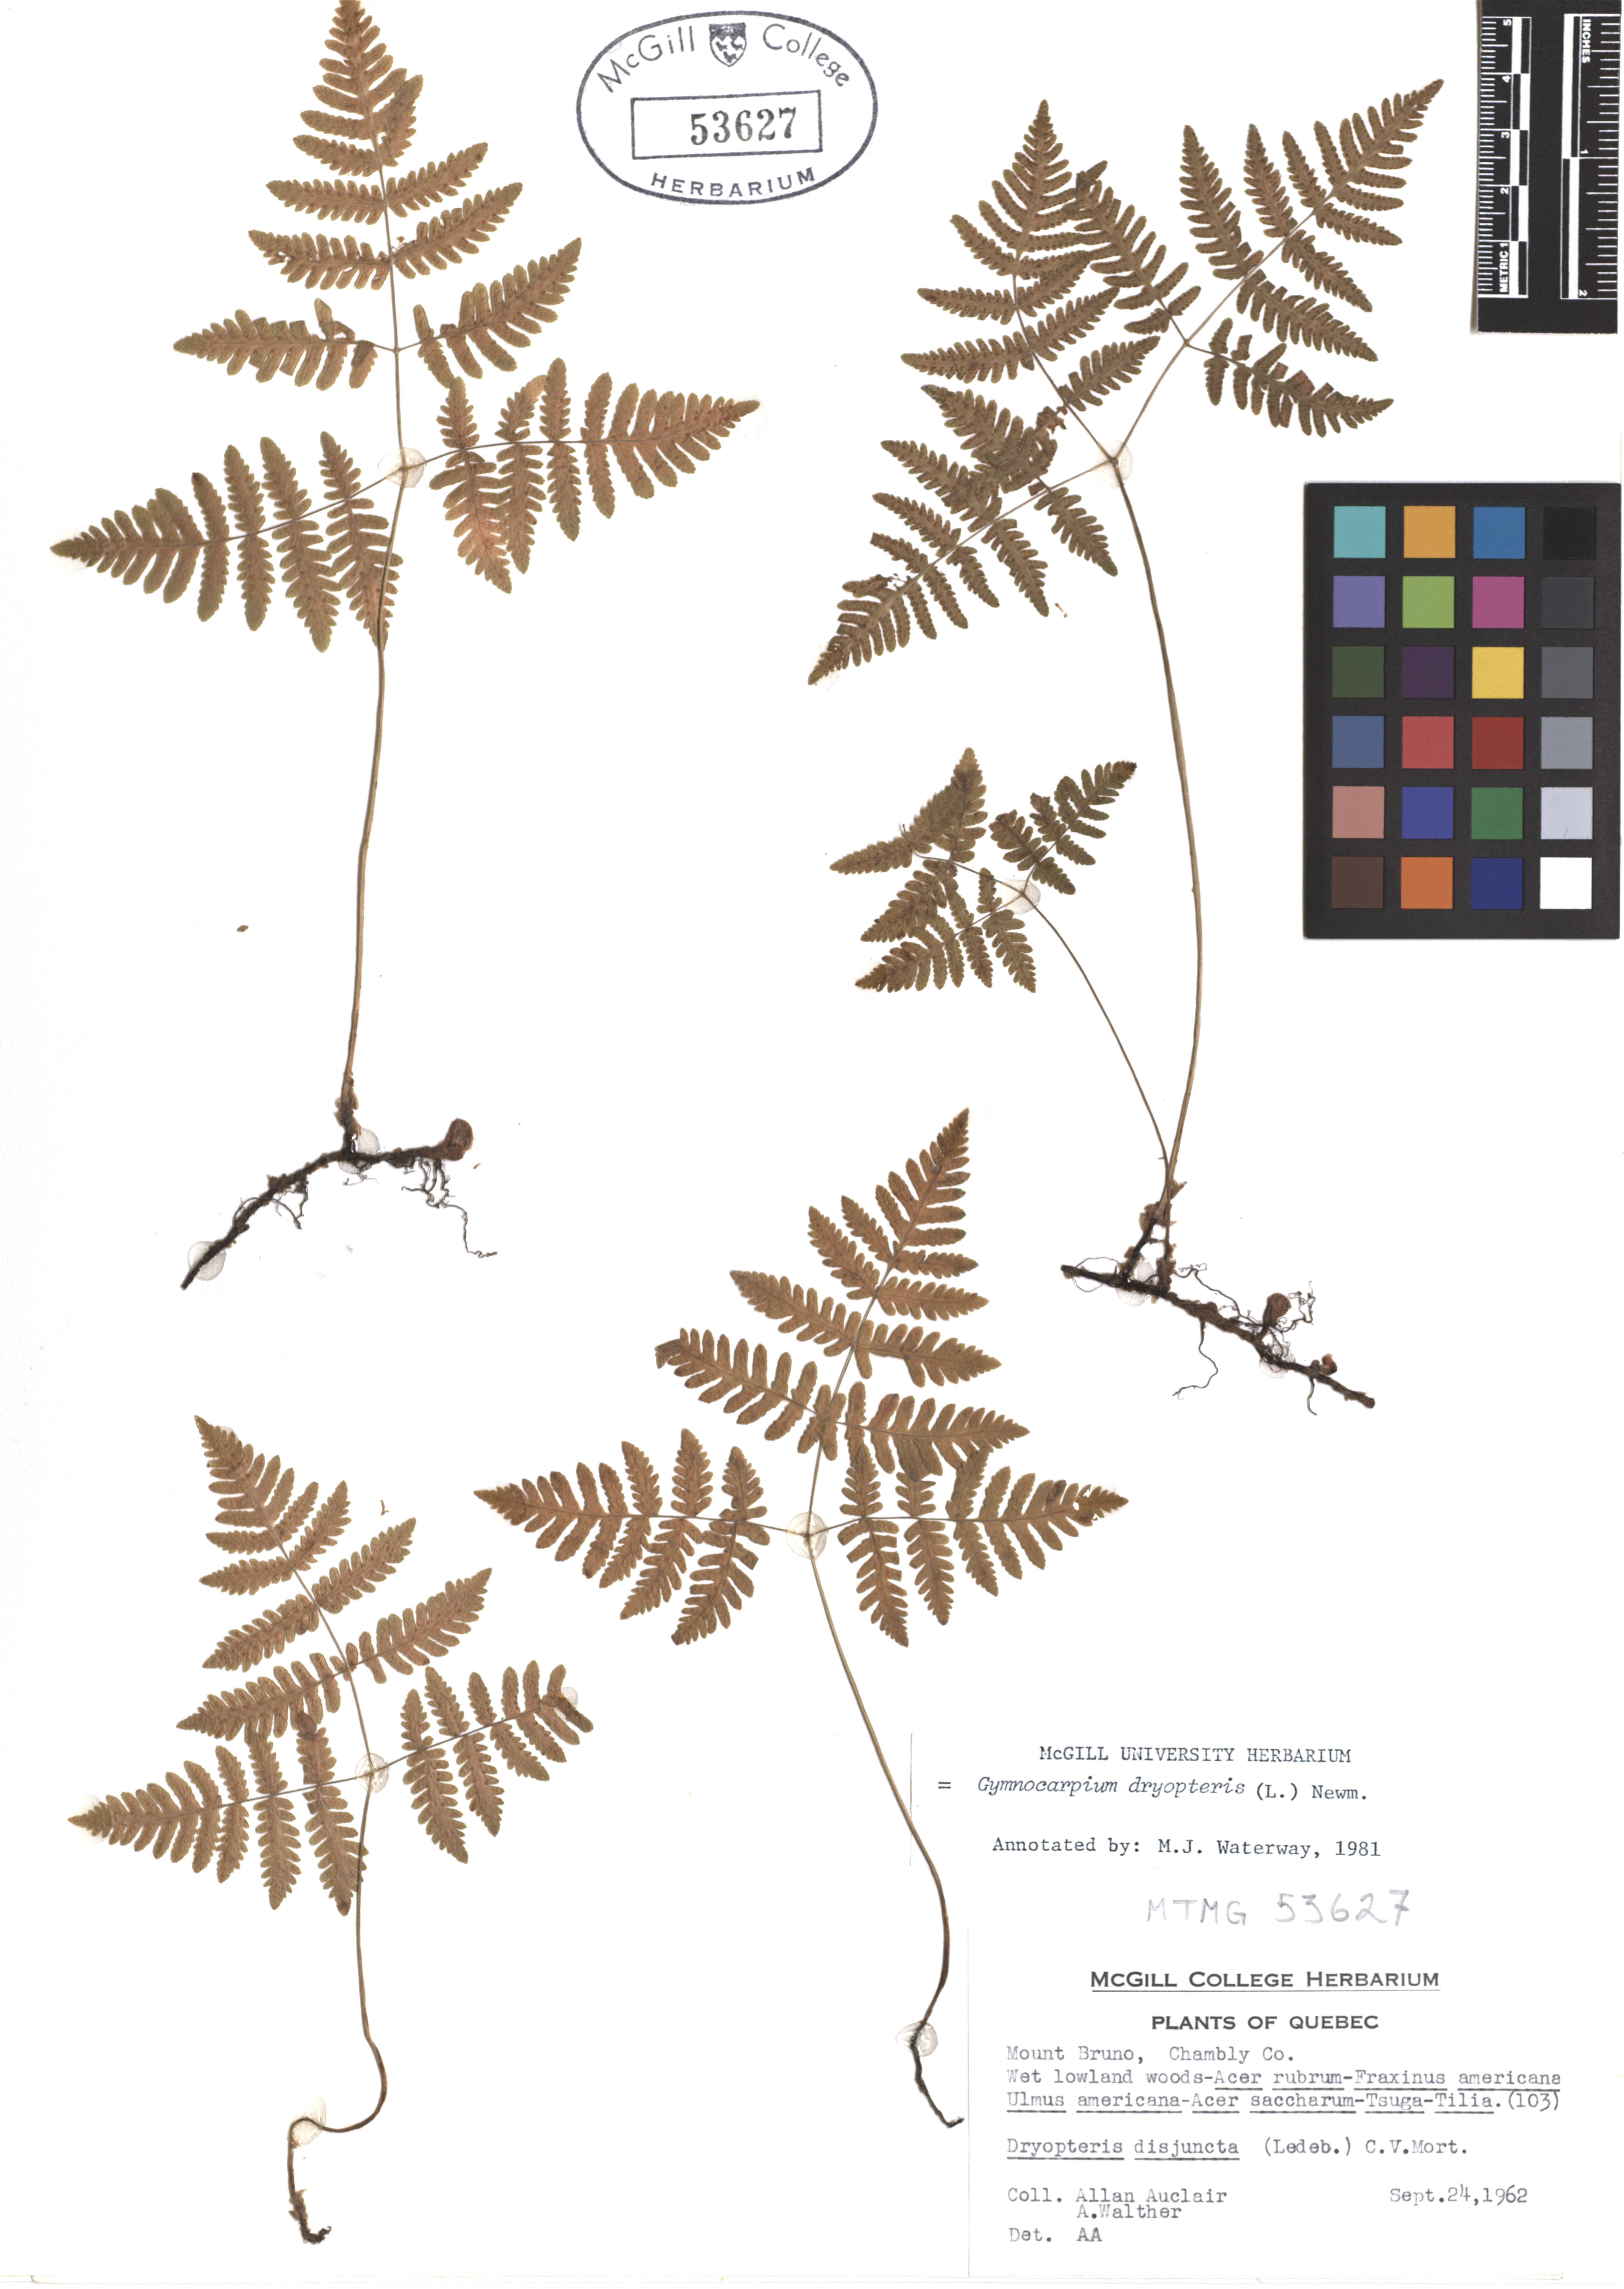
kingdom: Plantae
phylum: Tracheophyta
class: Polypodiopsida
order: Polypodiales
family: Cystopteridaceae
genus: Gymnocarpium
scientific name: Gymnocarpium dryopteris
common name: Oak fern
